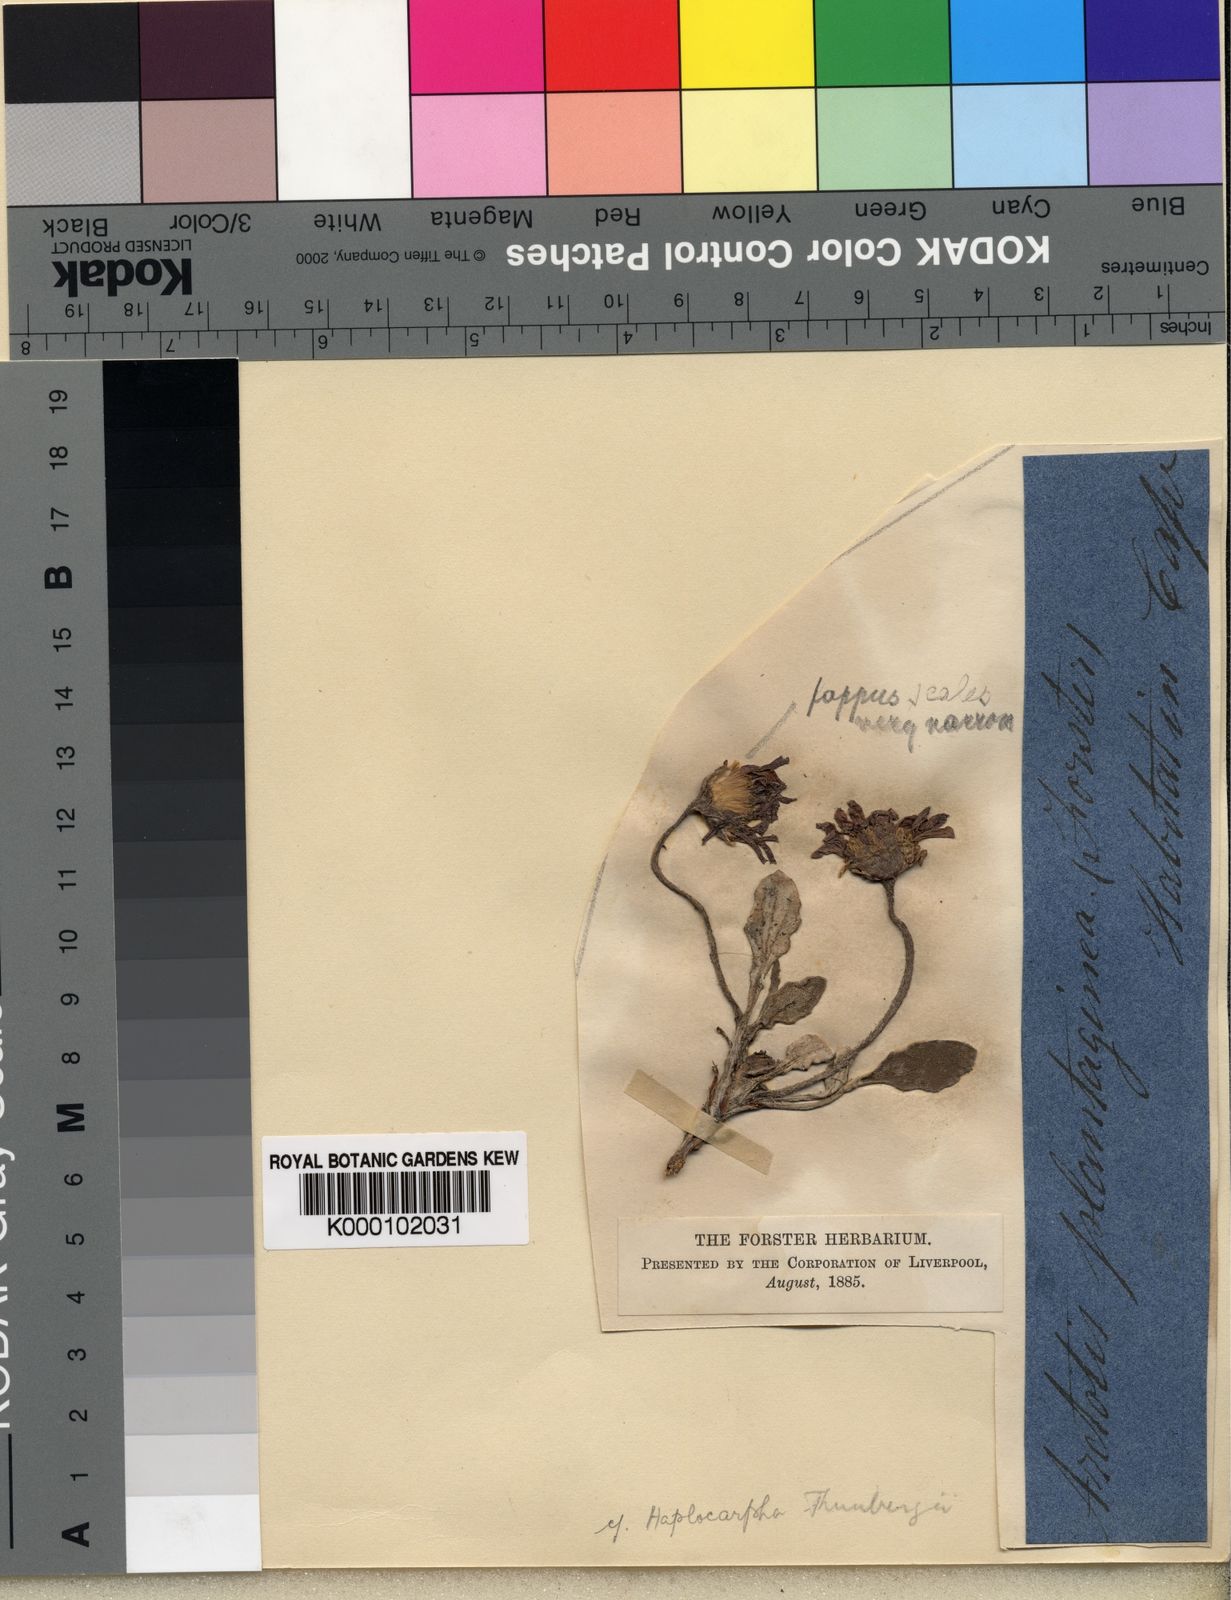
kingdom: Plantae
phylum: Tracheophyta
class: Magnoliopsida
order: Asterales
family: Asteraceae
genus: Arctotis
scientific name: Arctotis angustifolia
